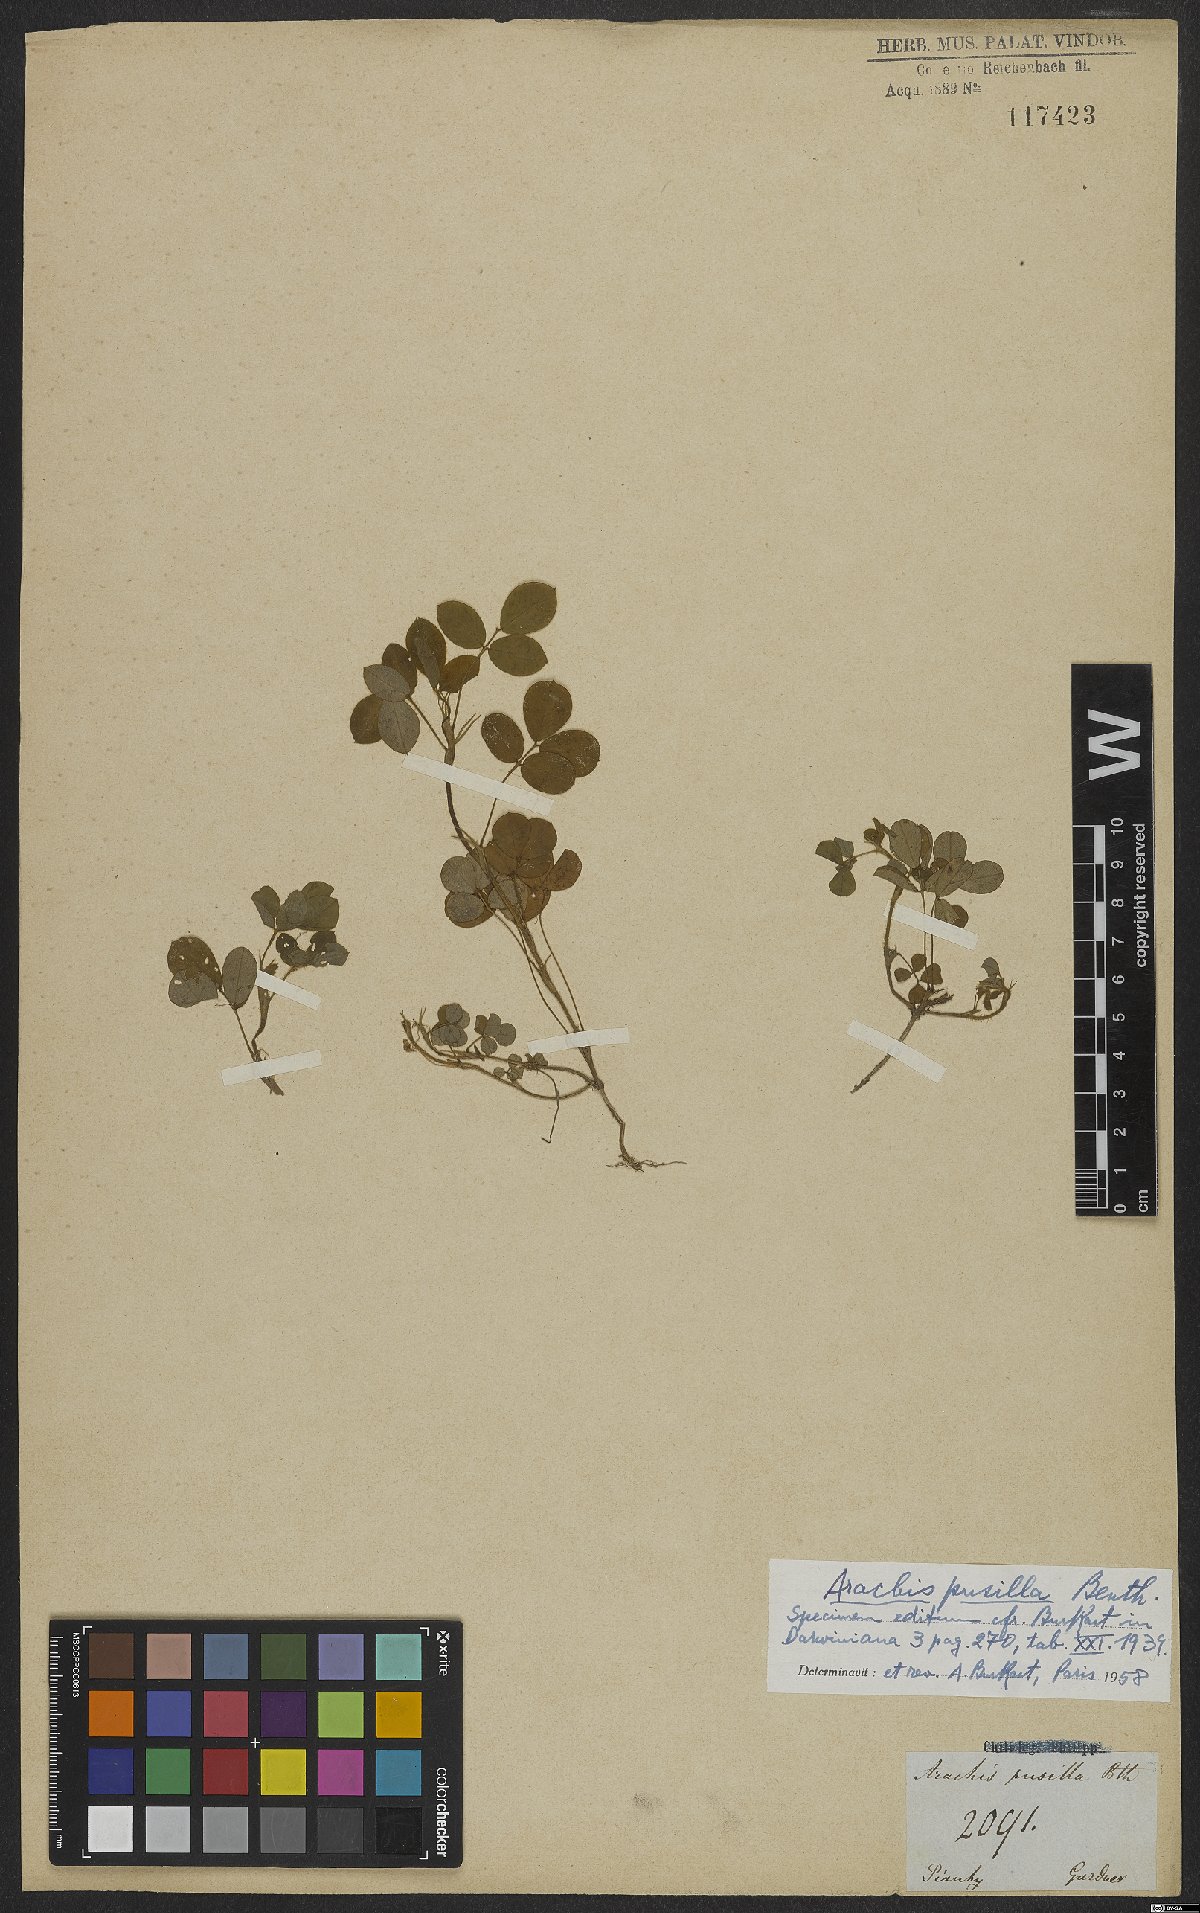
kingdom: Plantae
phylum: Tracheophyta
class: Magnoliopsida
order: Fabales
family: Fabaceae
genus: Arachis
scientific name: Arachis pusilla
